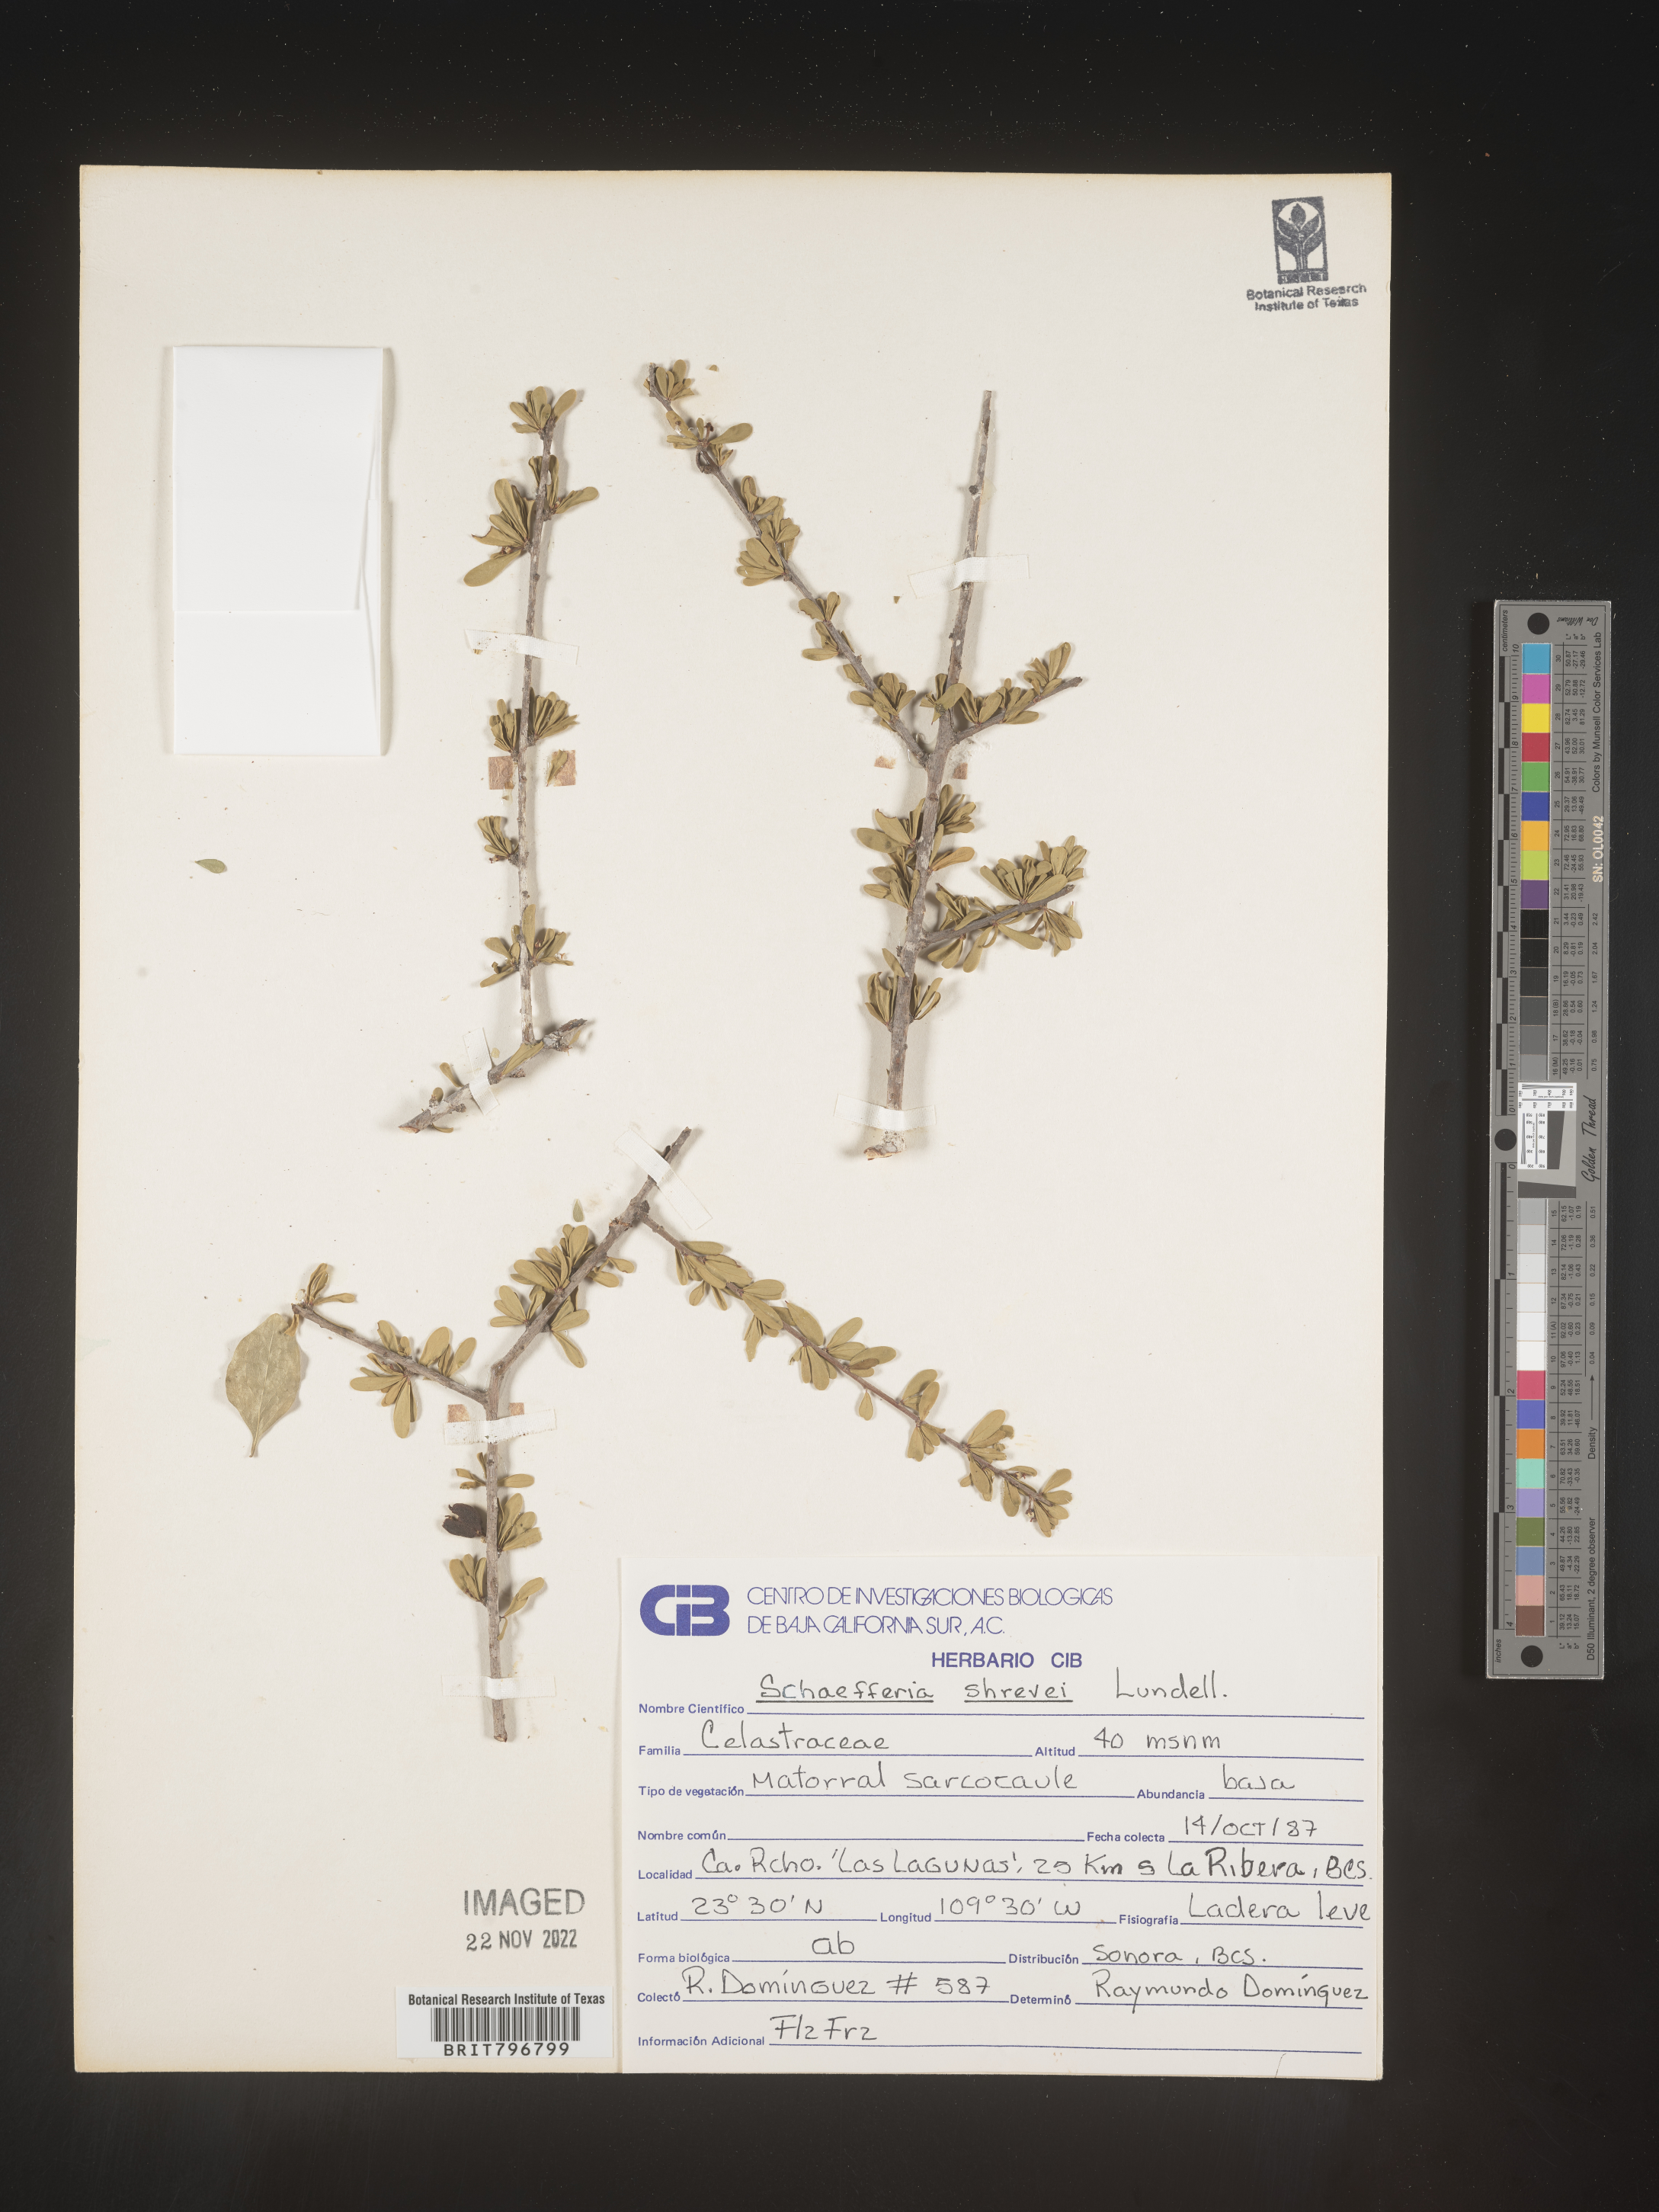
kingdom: Plantae
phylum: Tracheophyta
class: Magnoliopsida
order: Celastrales
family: Celastraceae
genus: Schaefferia
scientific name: Schaefferia
